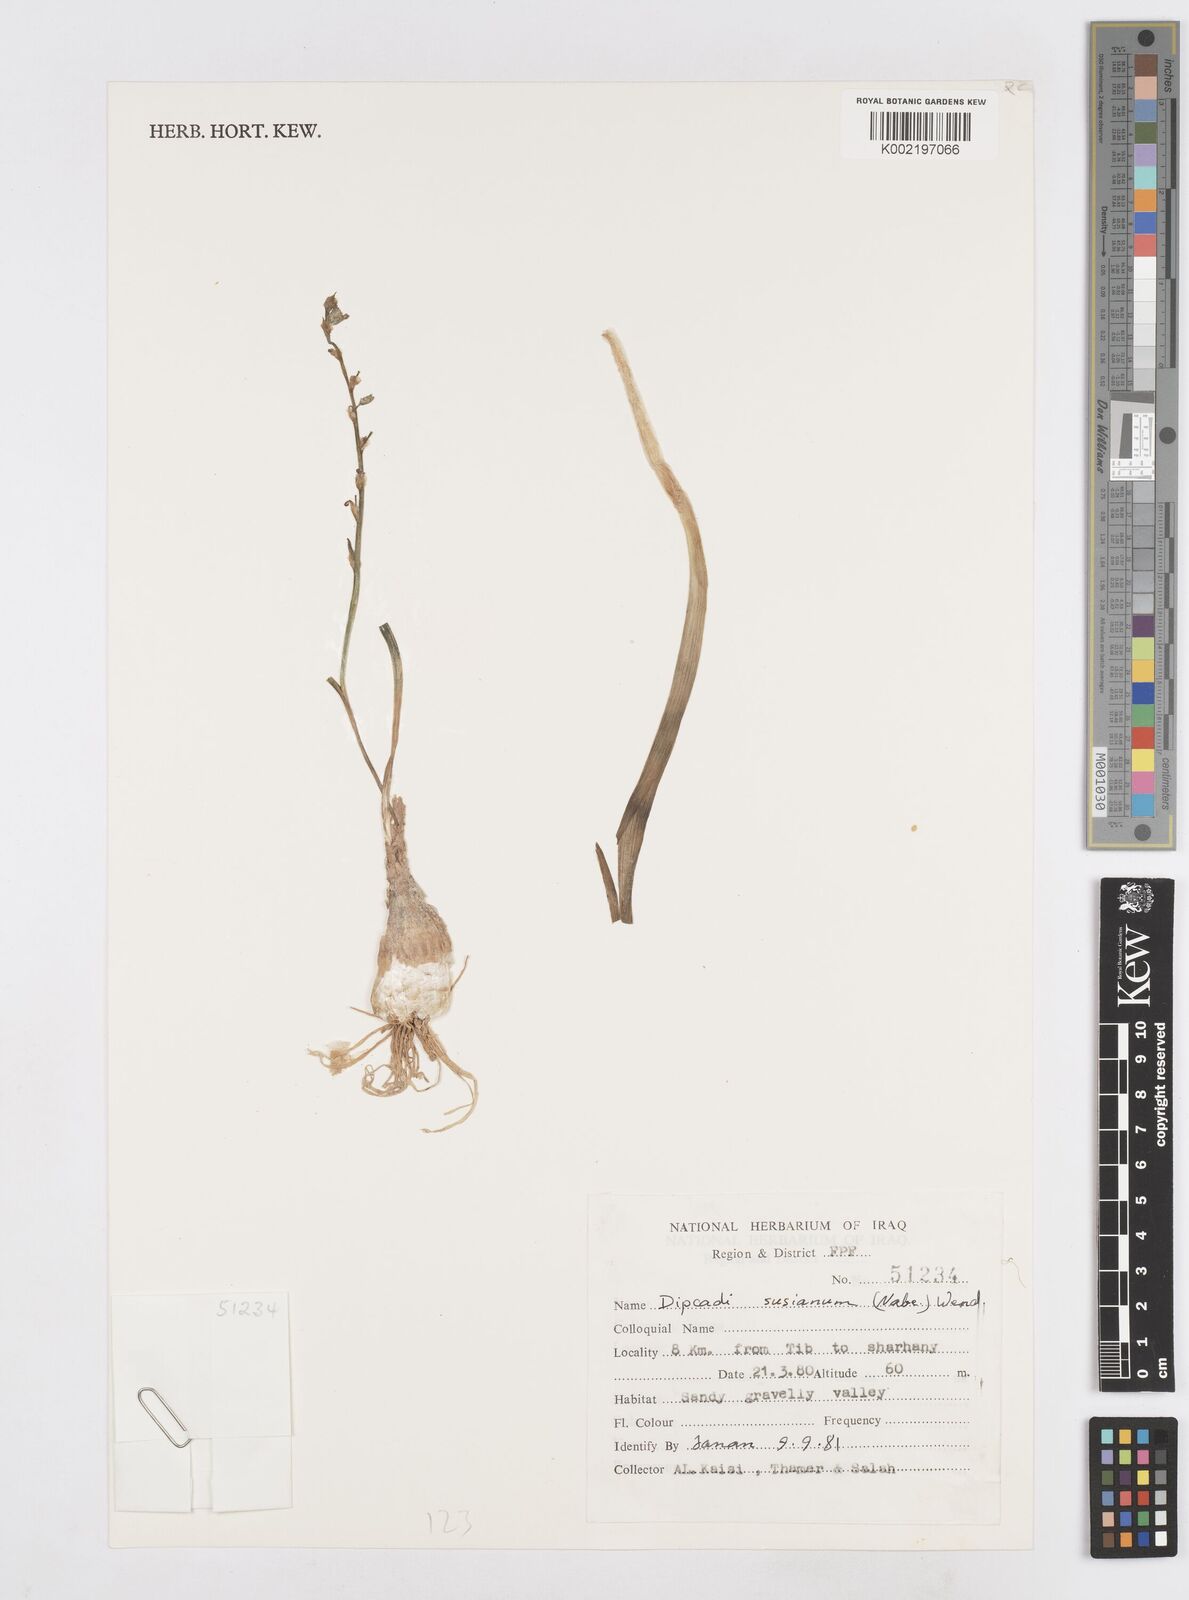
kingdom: Plantae
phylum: Tracheophyta
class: Liliopsida
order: Asparagales
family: Asparagaceae
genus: Dipcadi
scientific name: Dipcadi susianum
